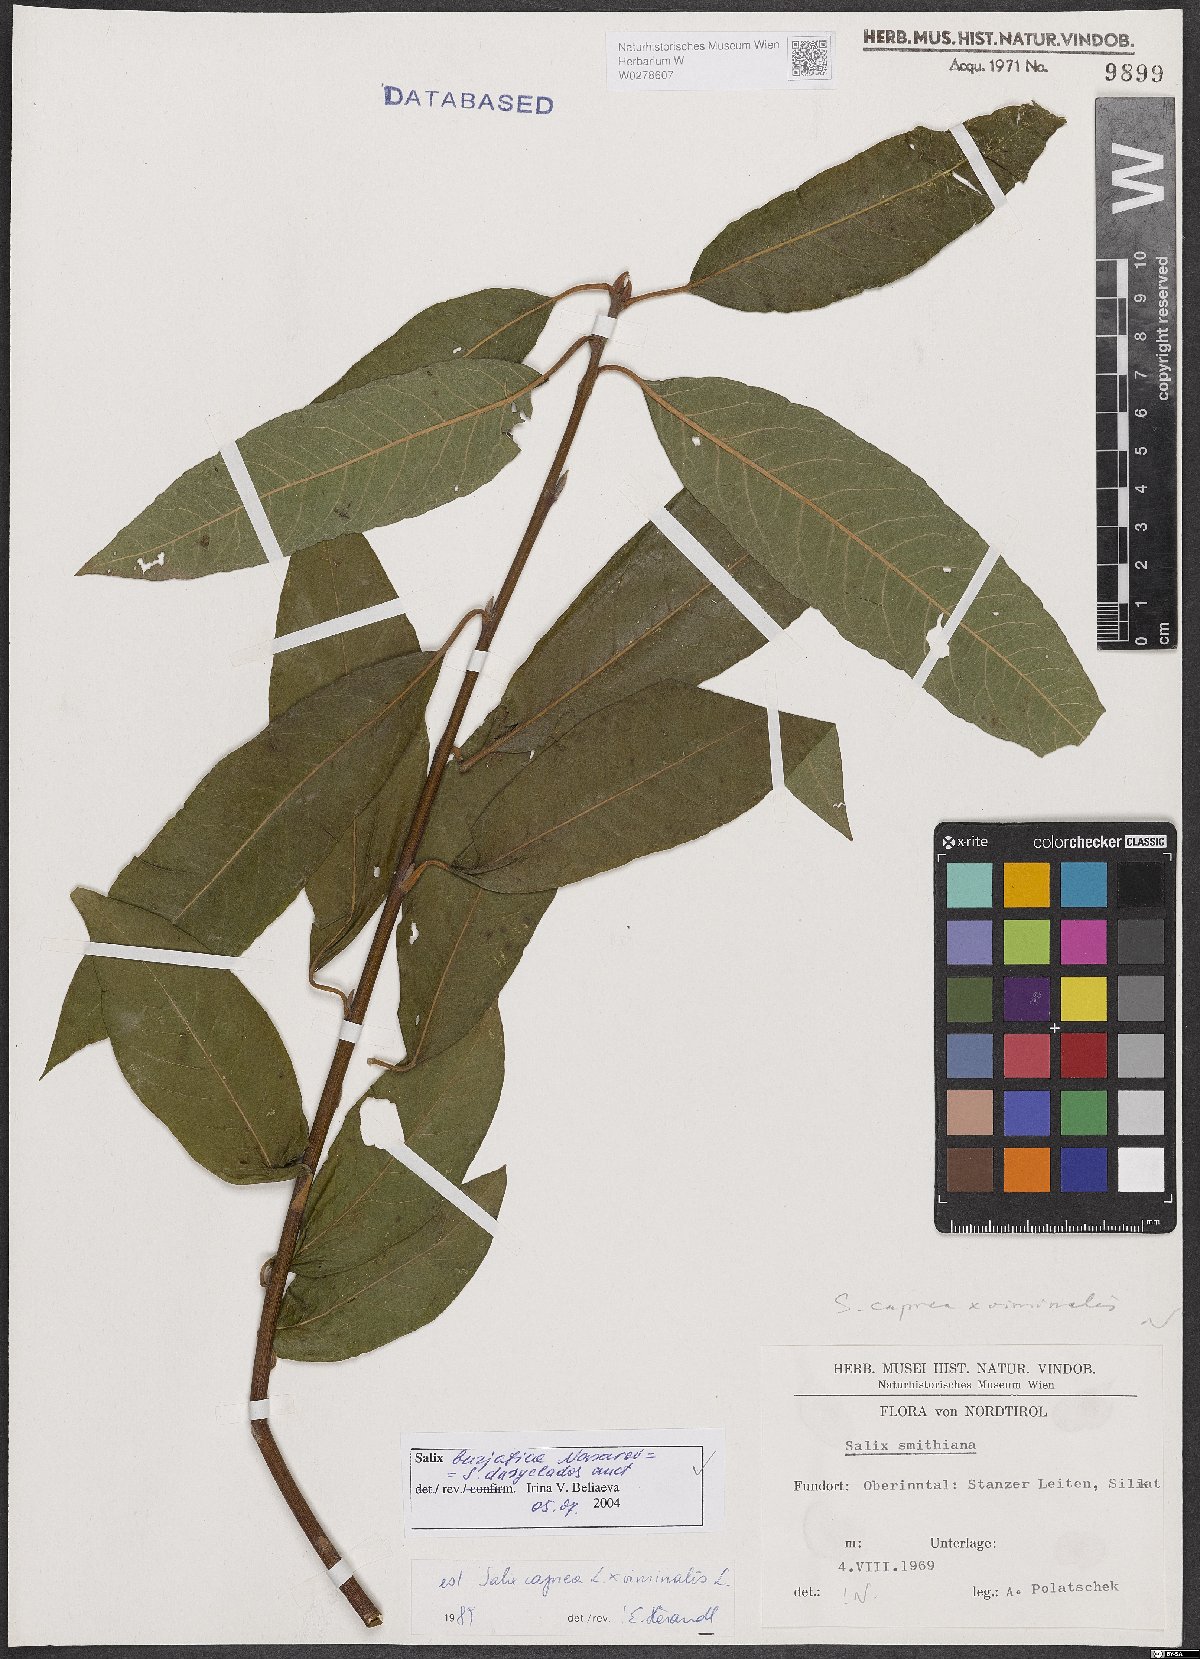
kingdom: Plantae
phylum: Tracheophyta
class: Magnoliopsida
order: Malpighiales
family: Salicaceae
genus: Salix
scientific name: Salix gmelinii
